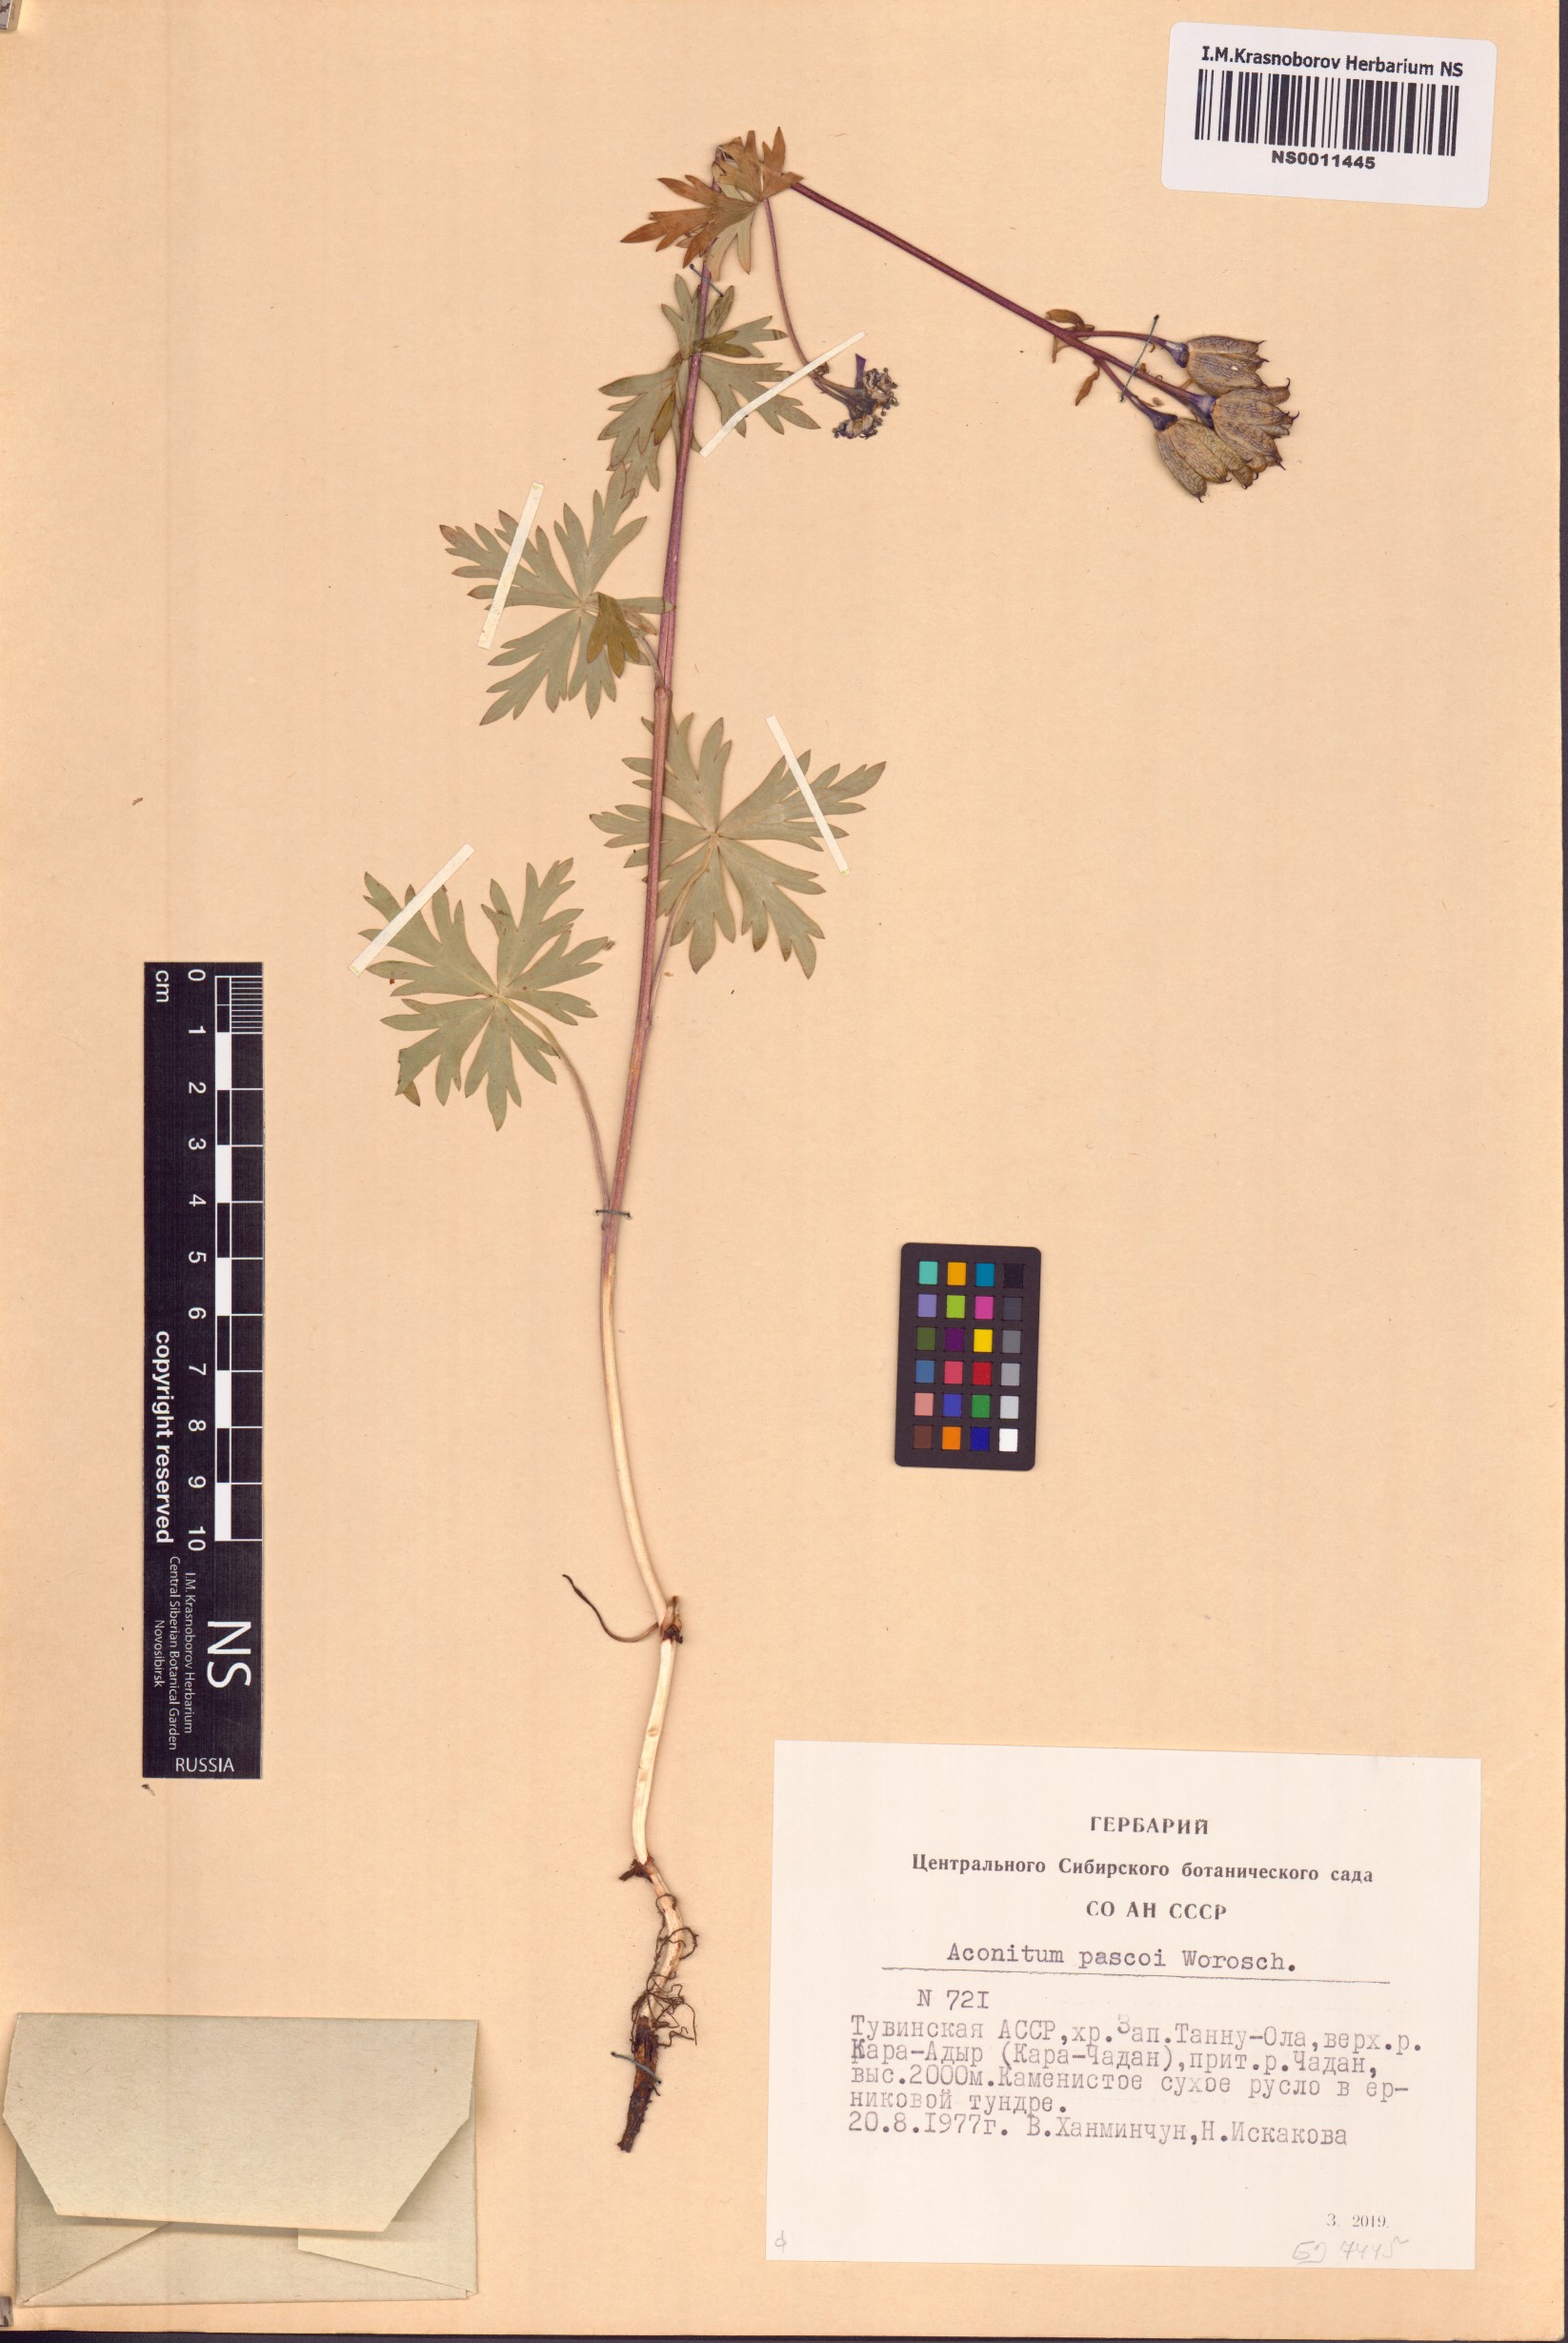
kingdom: Plantae
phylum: Tracheophyta
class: Magnoliopsida
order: Ranunculales
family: Ranunculaceae
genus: Aconitum
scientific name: Aconitum pascoi
